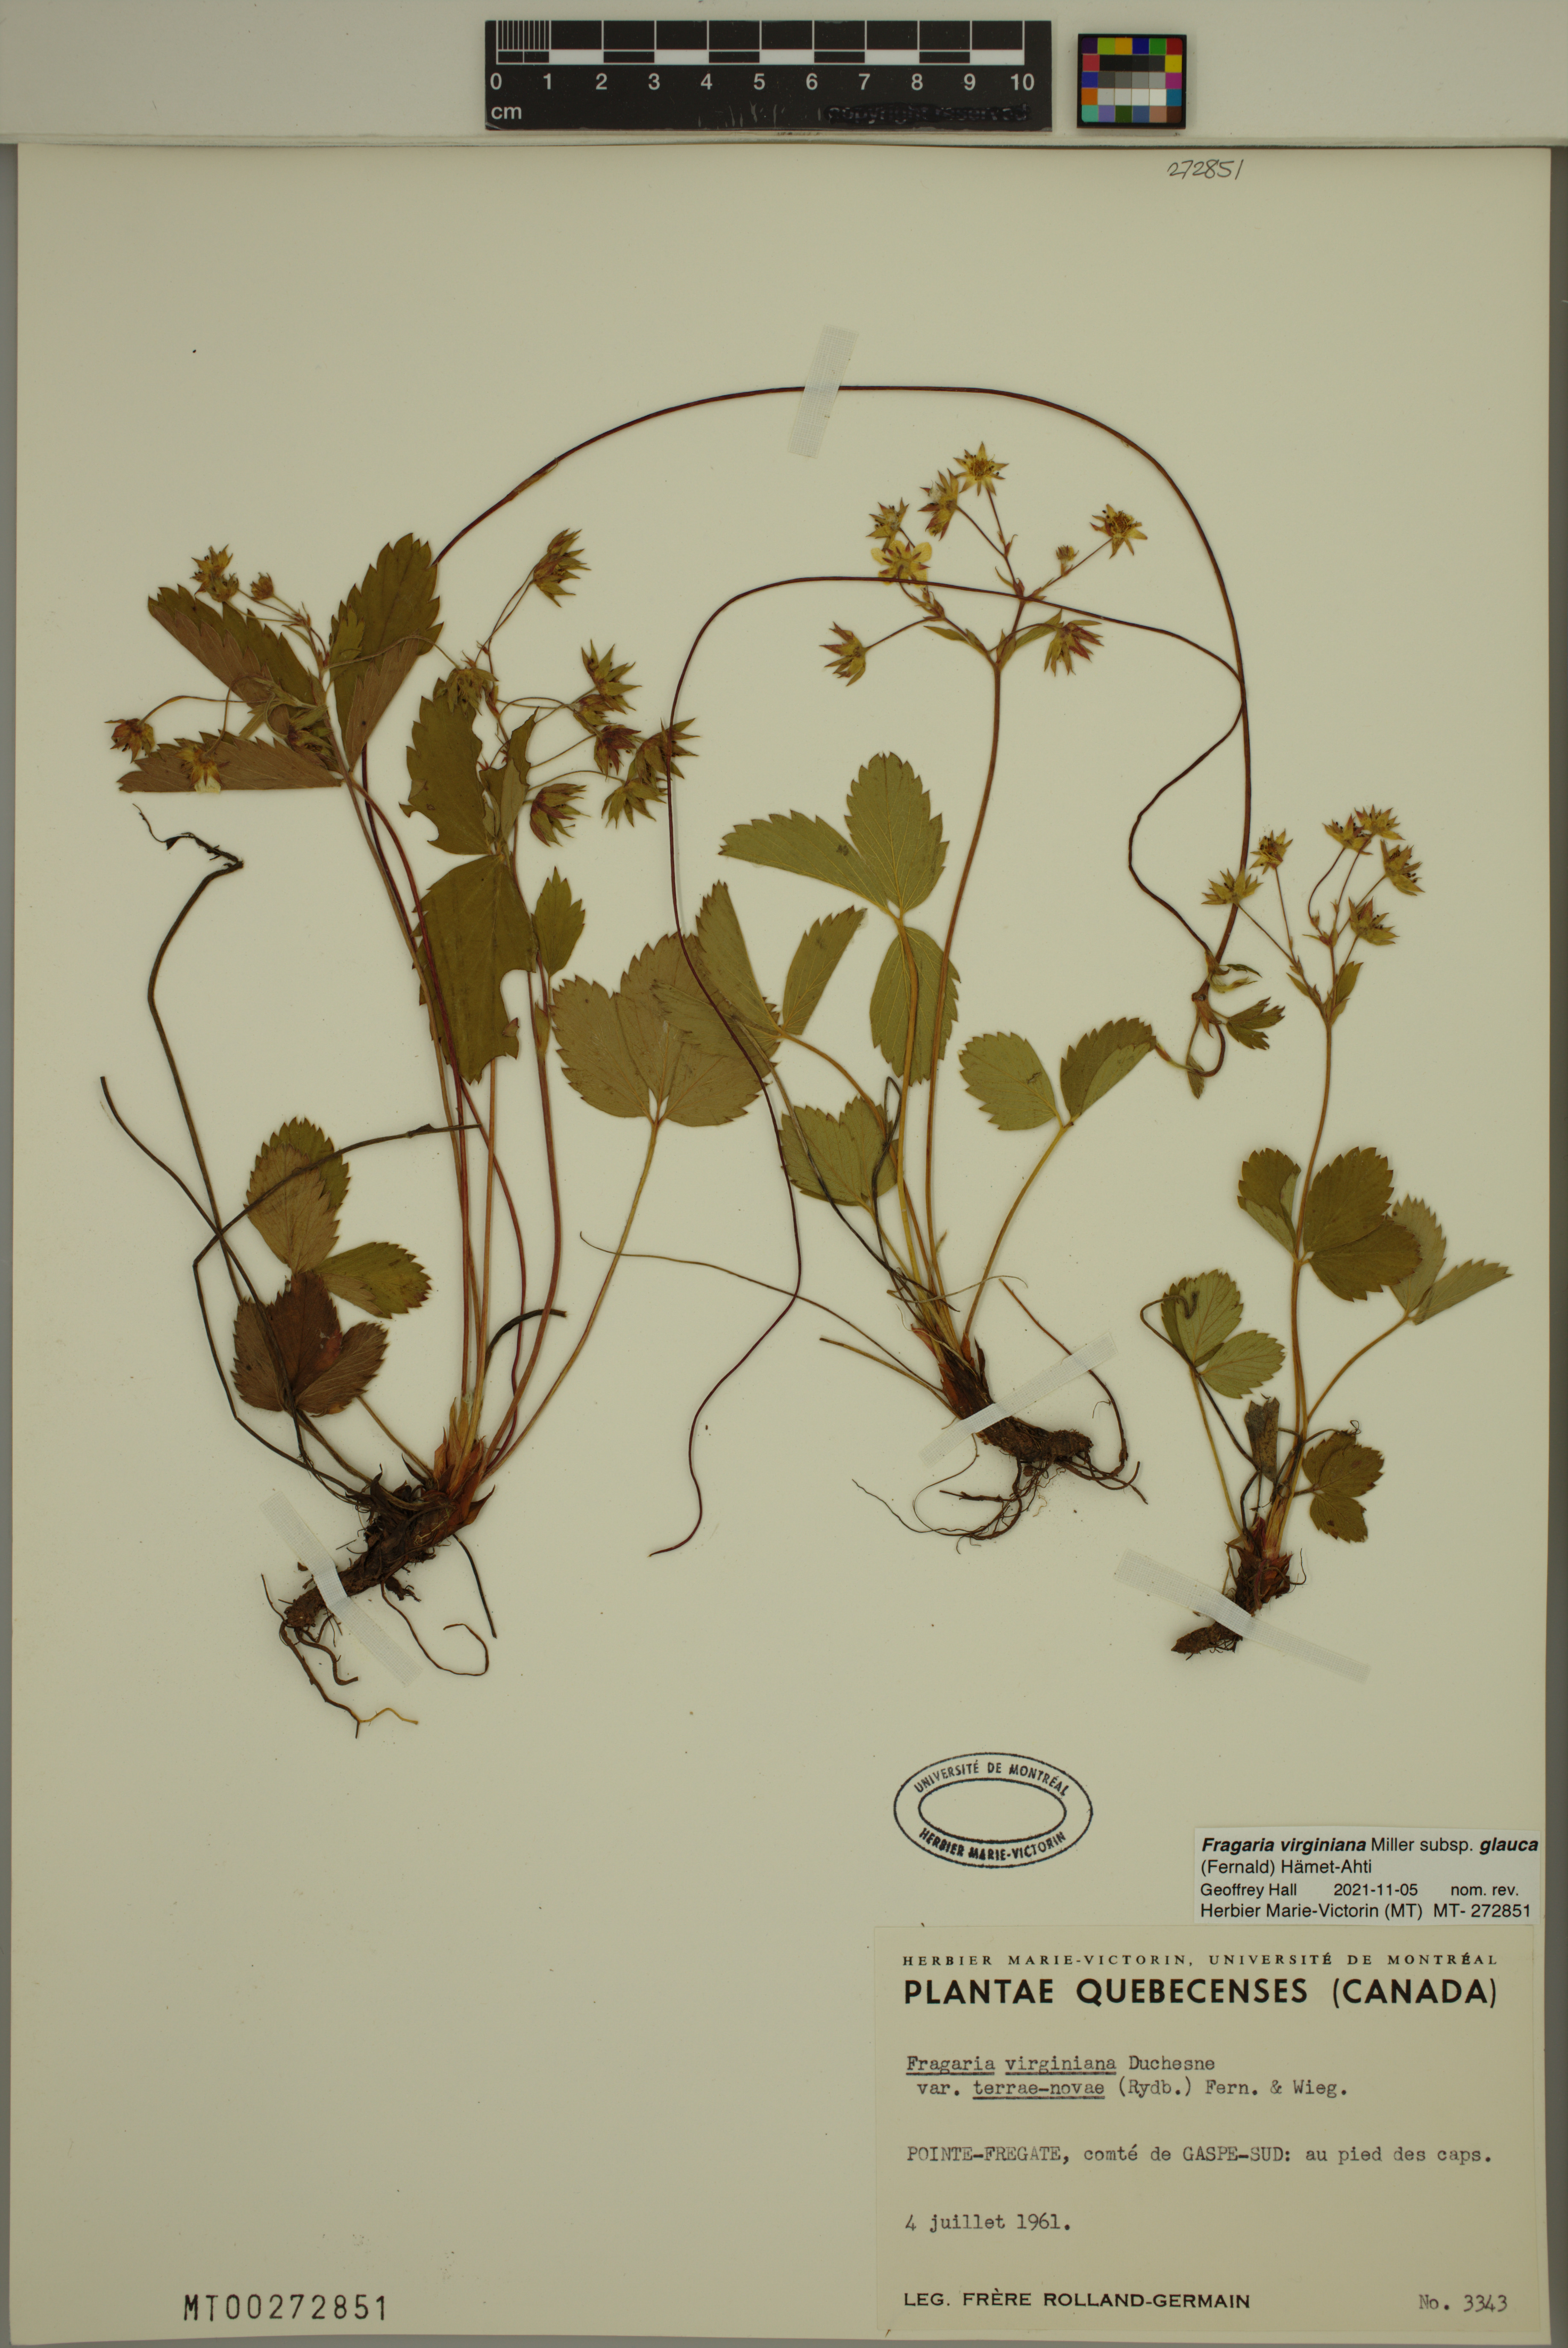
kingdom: Plantae
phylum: Tracheophyta
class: Magnoliopsida
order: Rosales
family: Rosaceae
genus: Fragaria
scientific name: Fragaria virginiana
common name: Thickleaved wild strawberry
